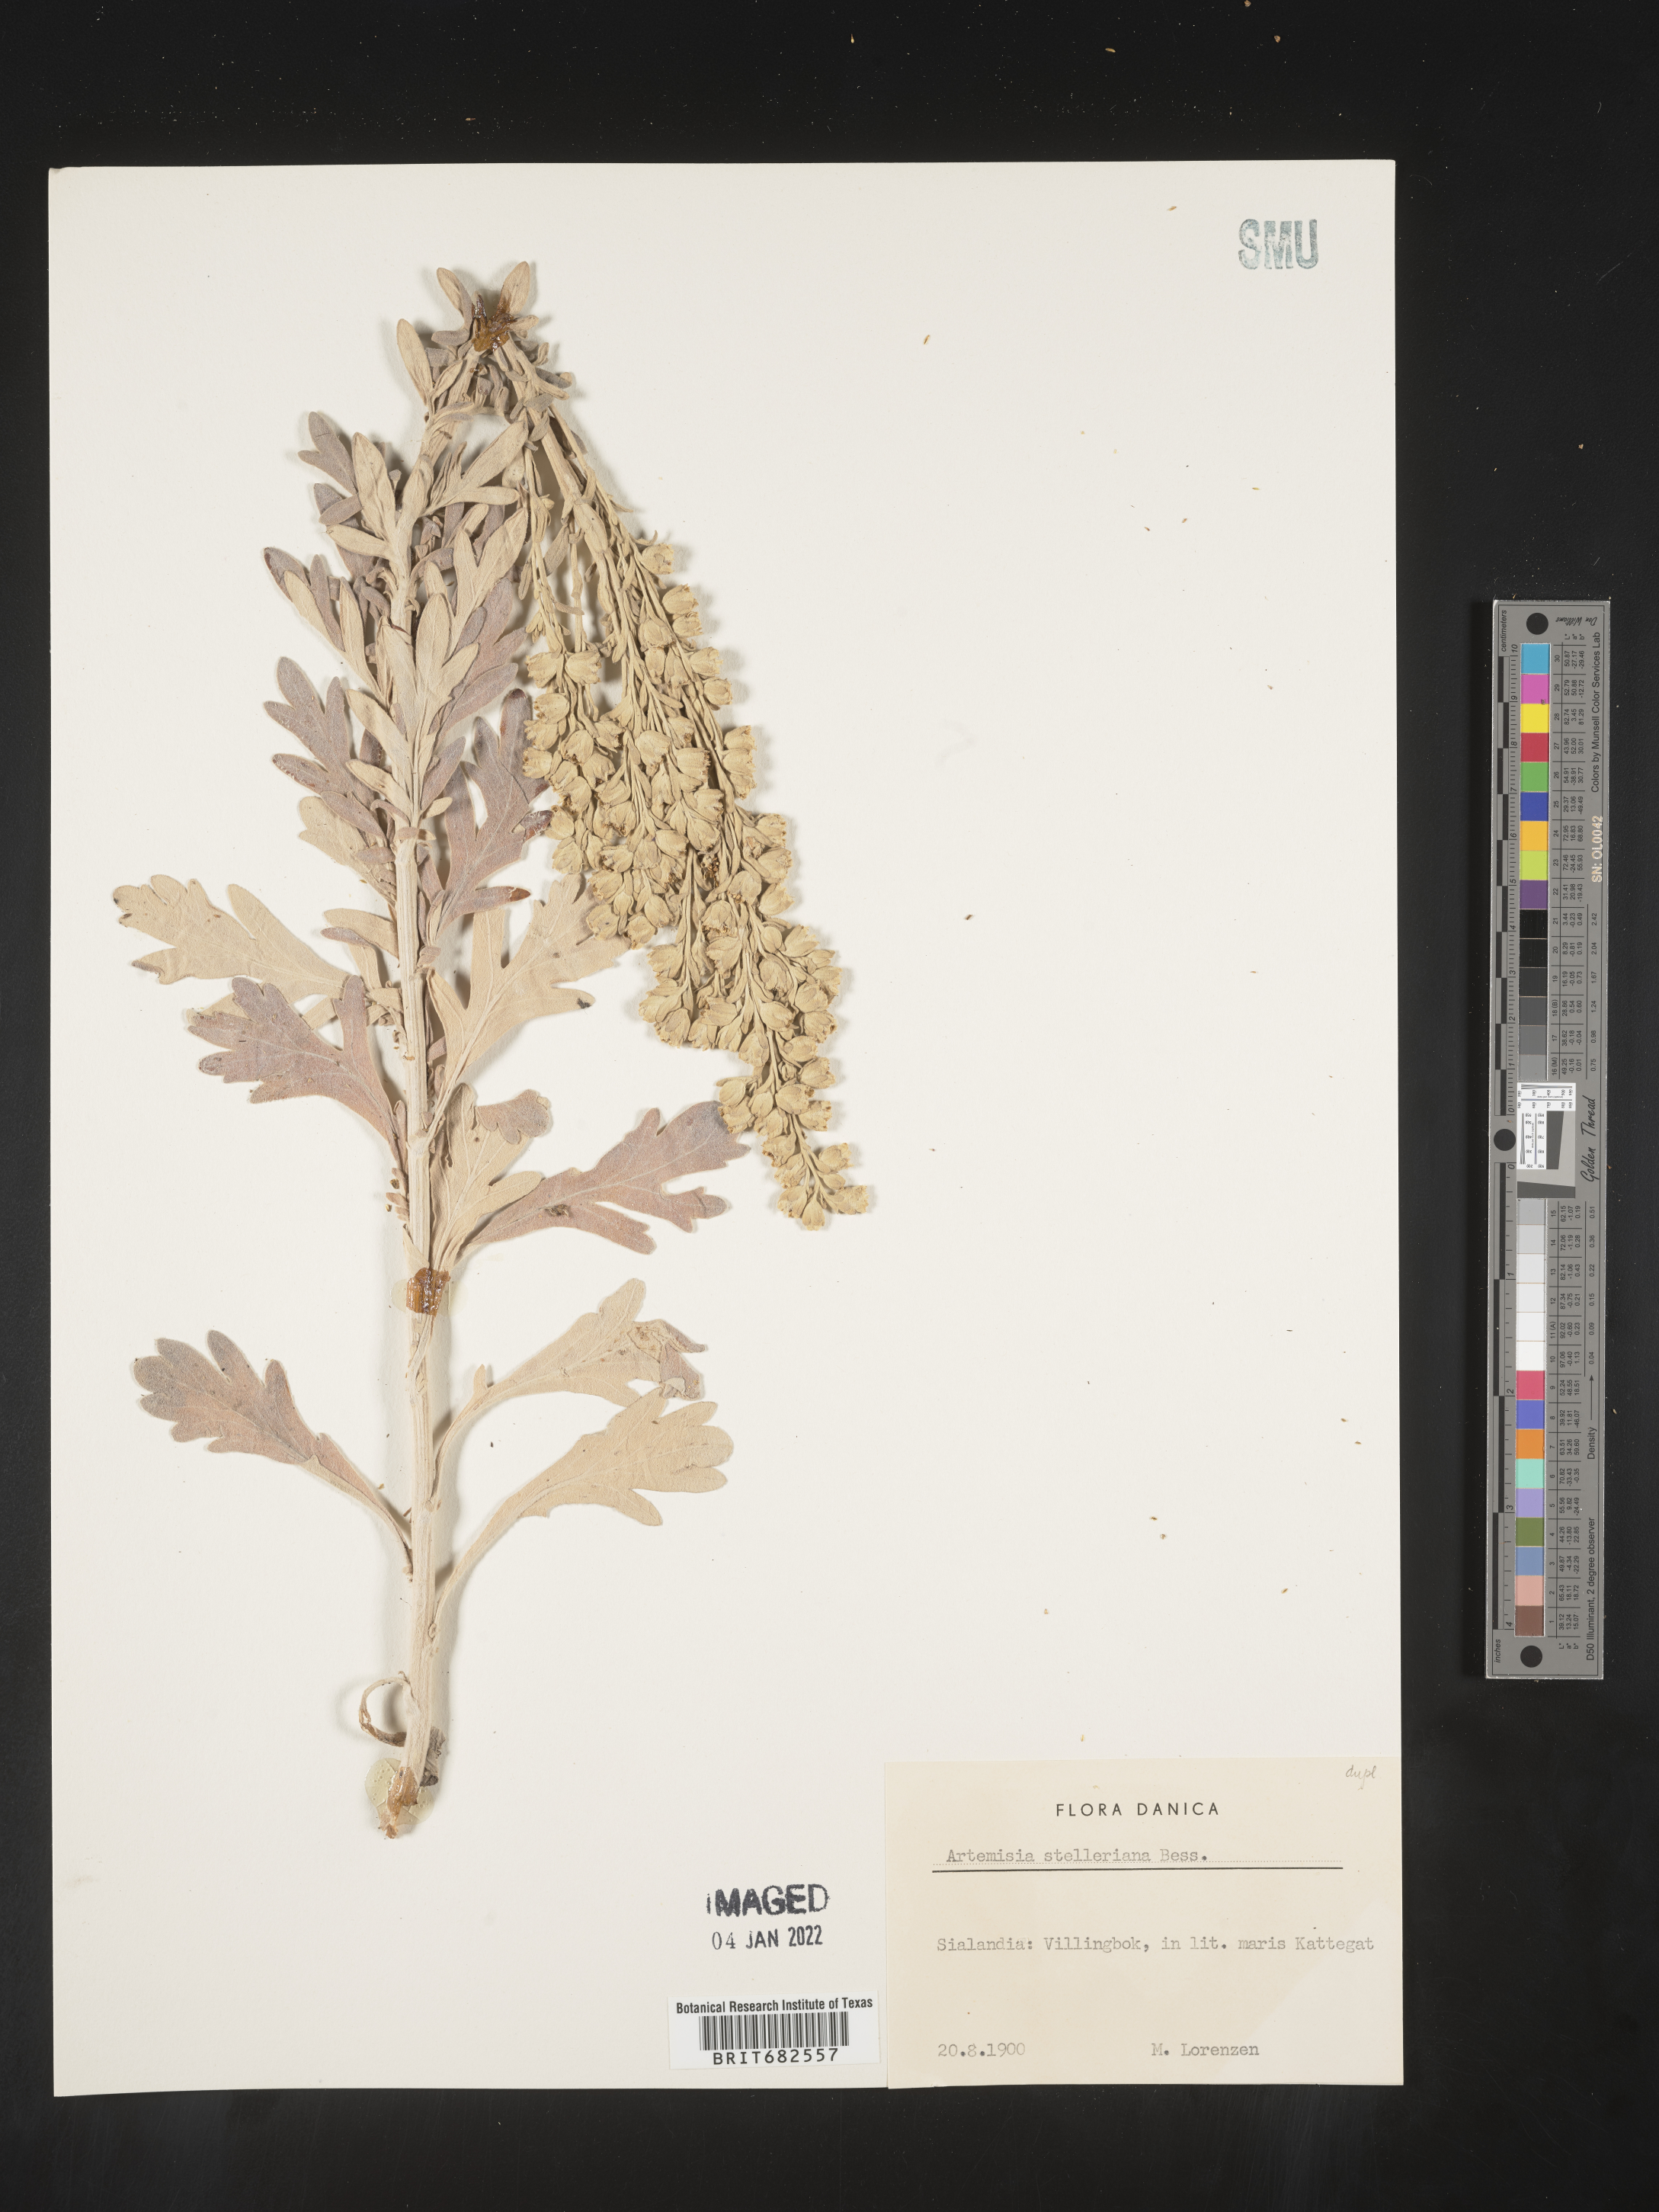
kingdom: Plantae
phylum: Tracheophyta
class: Magnoliopsida
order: Asterales
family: Asteraceae
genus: Artemisia
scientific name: Artemisia
